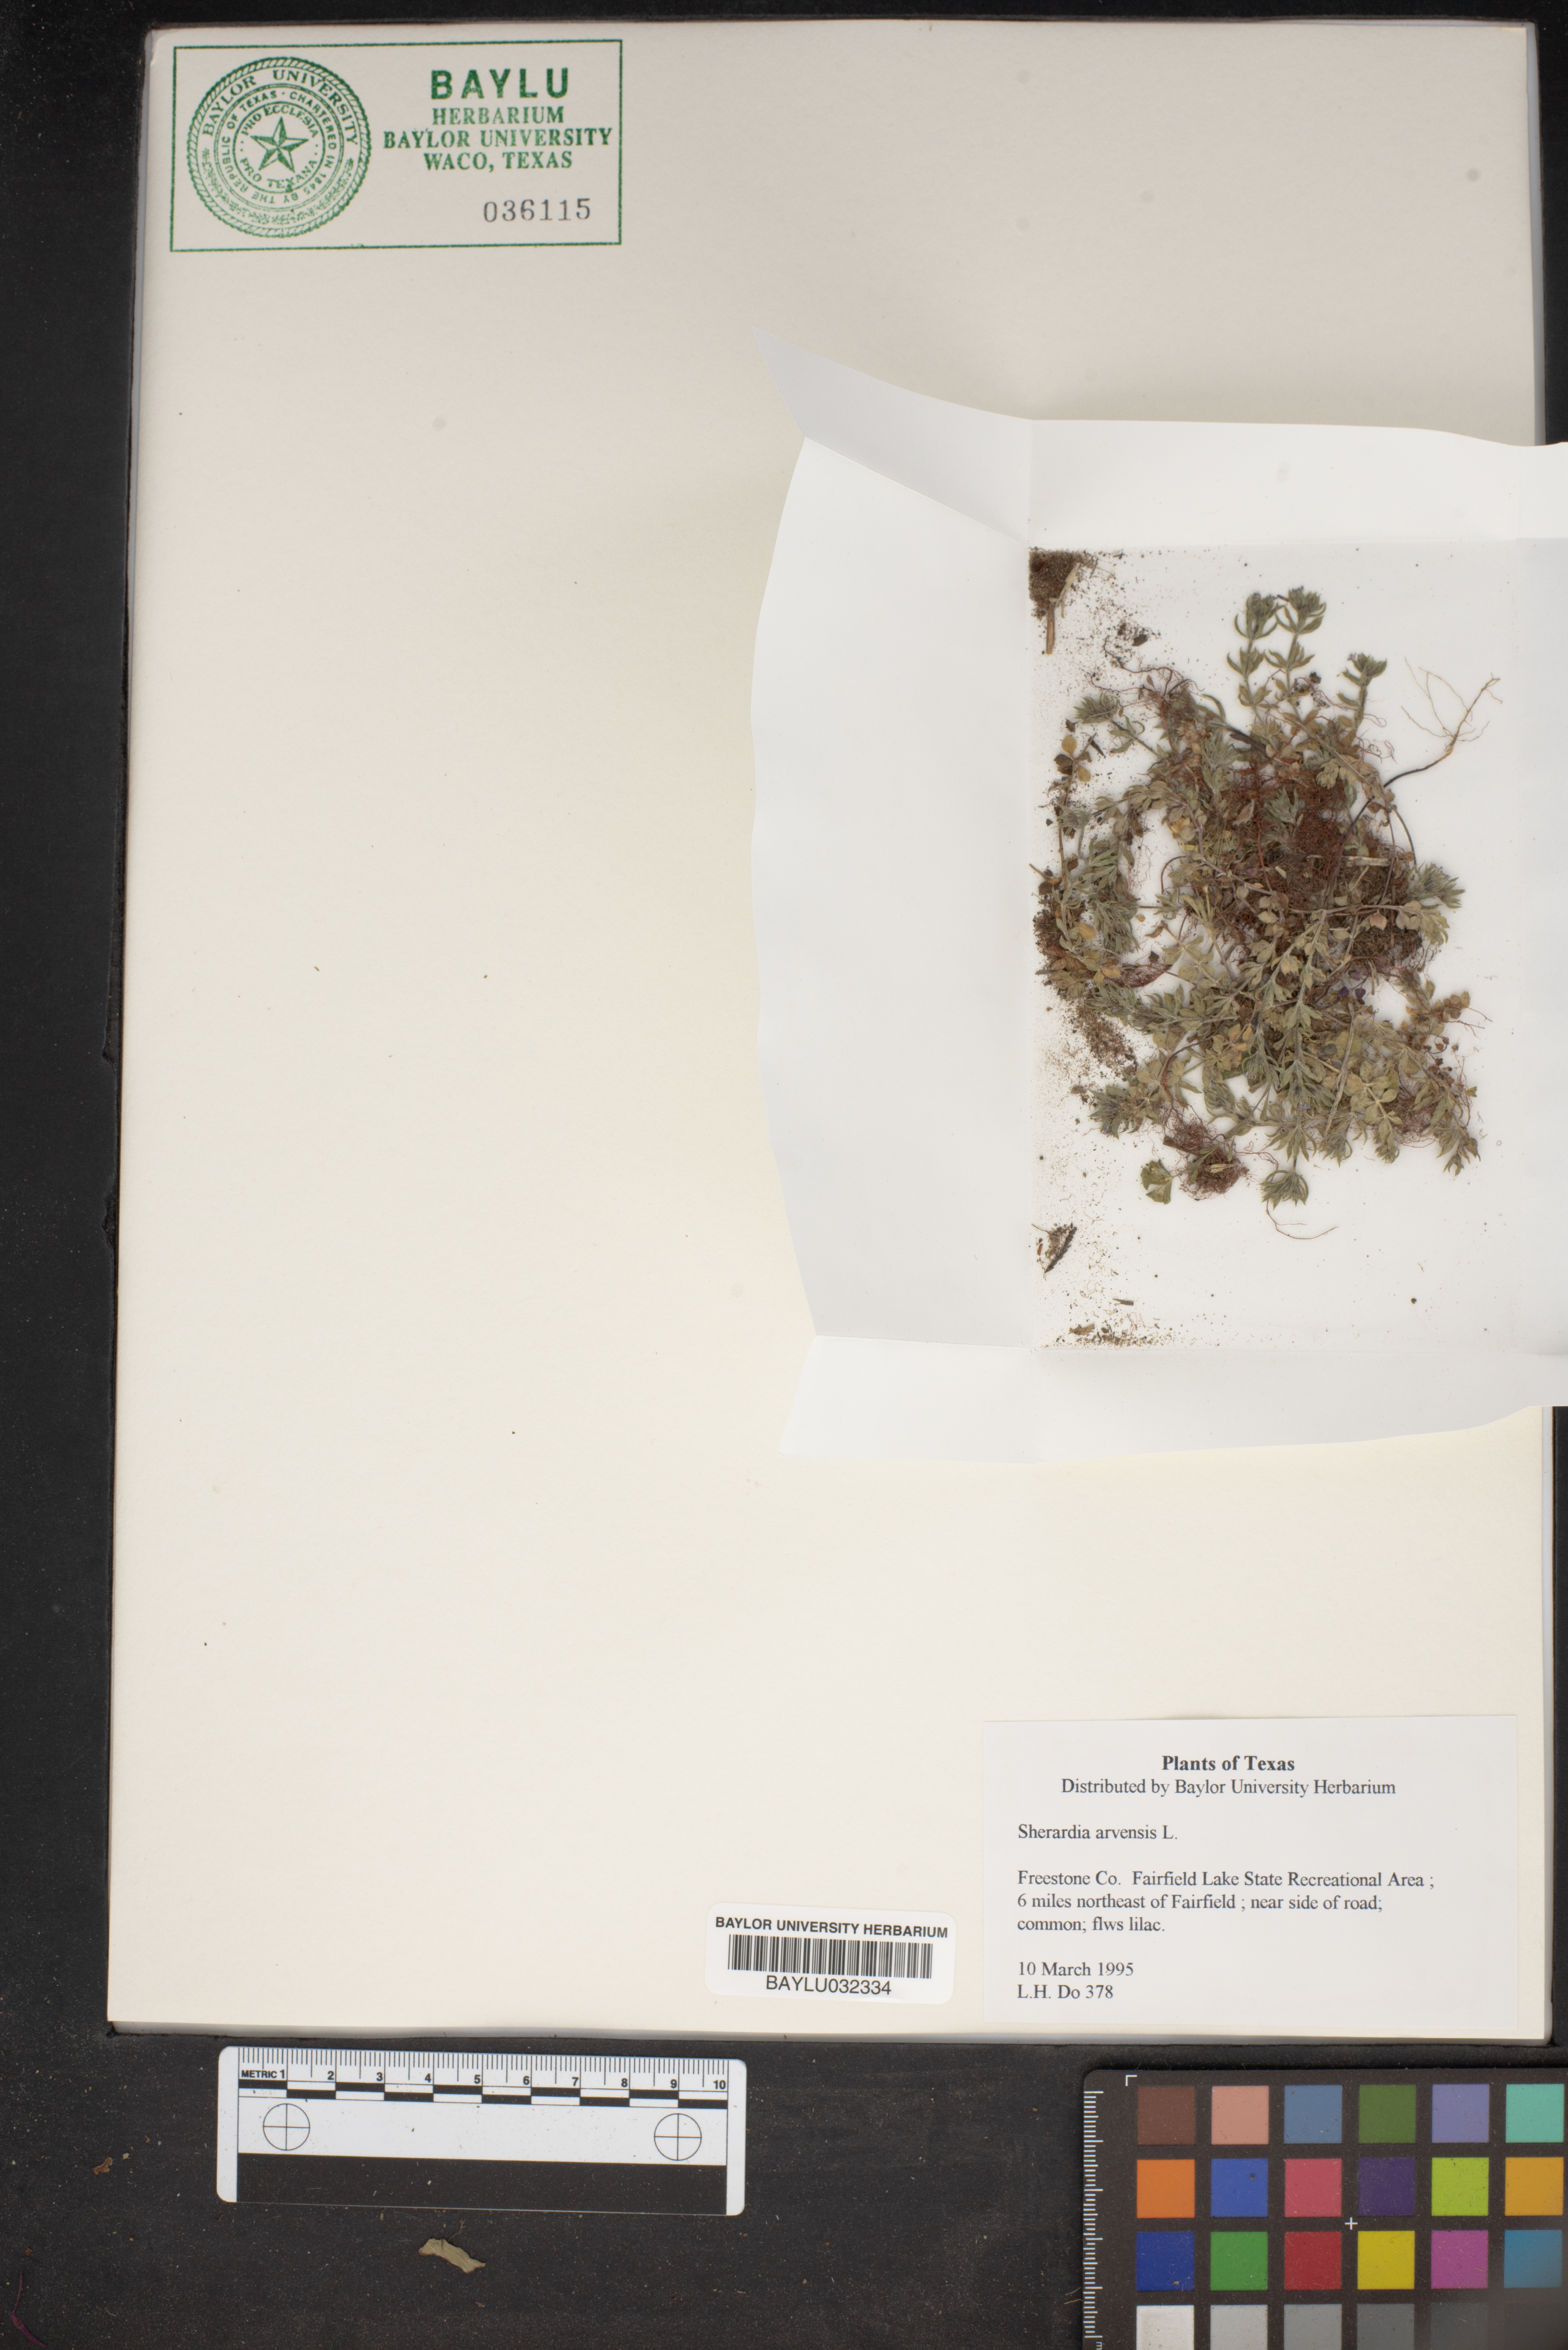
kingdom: Plantae
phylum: Tracheophyta
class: Magnoliopsida
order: Gentianales
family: Rubiaceae
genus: Sherardia
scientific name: Sherardia arvensis
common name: Field madder
